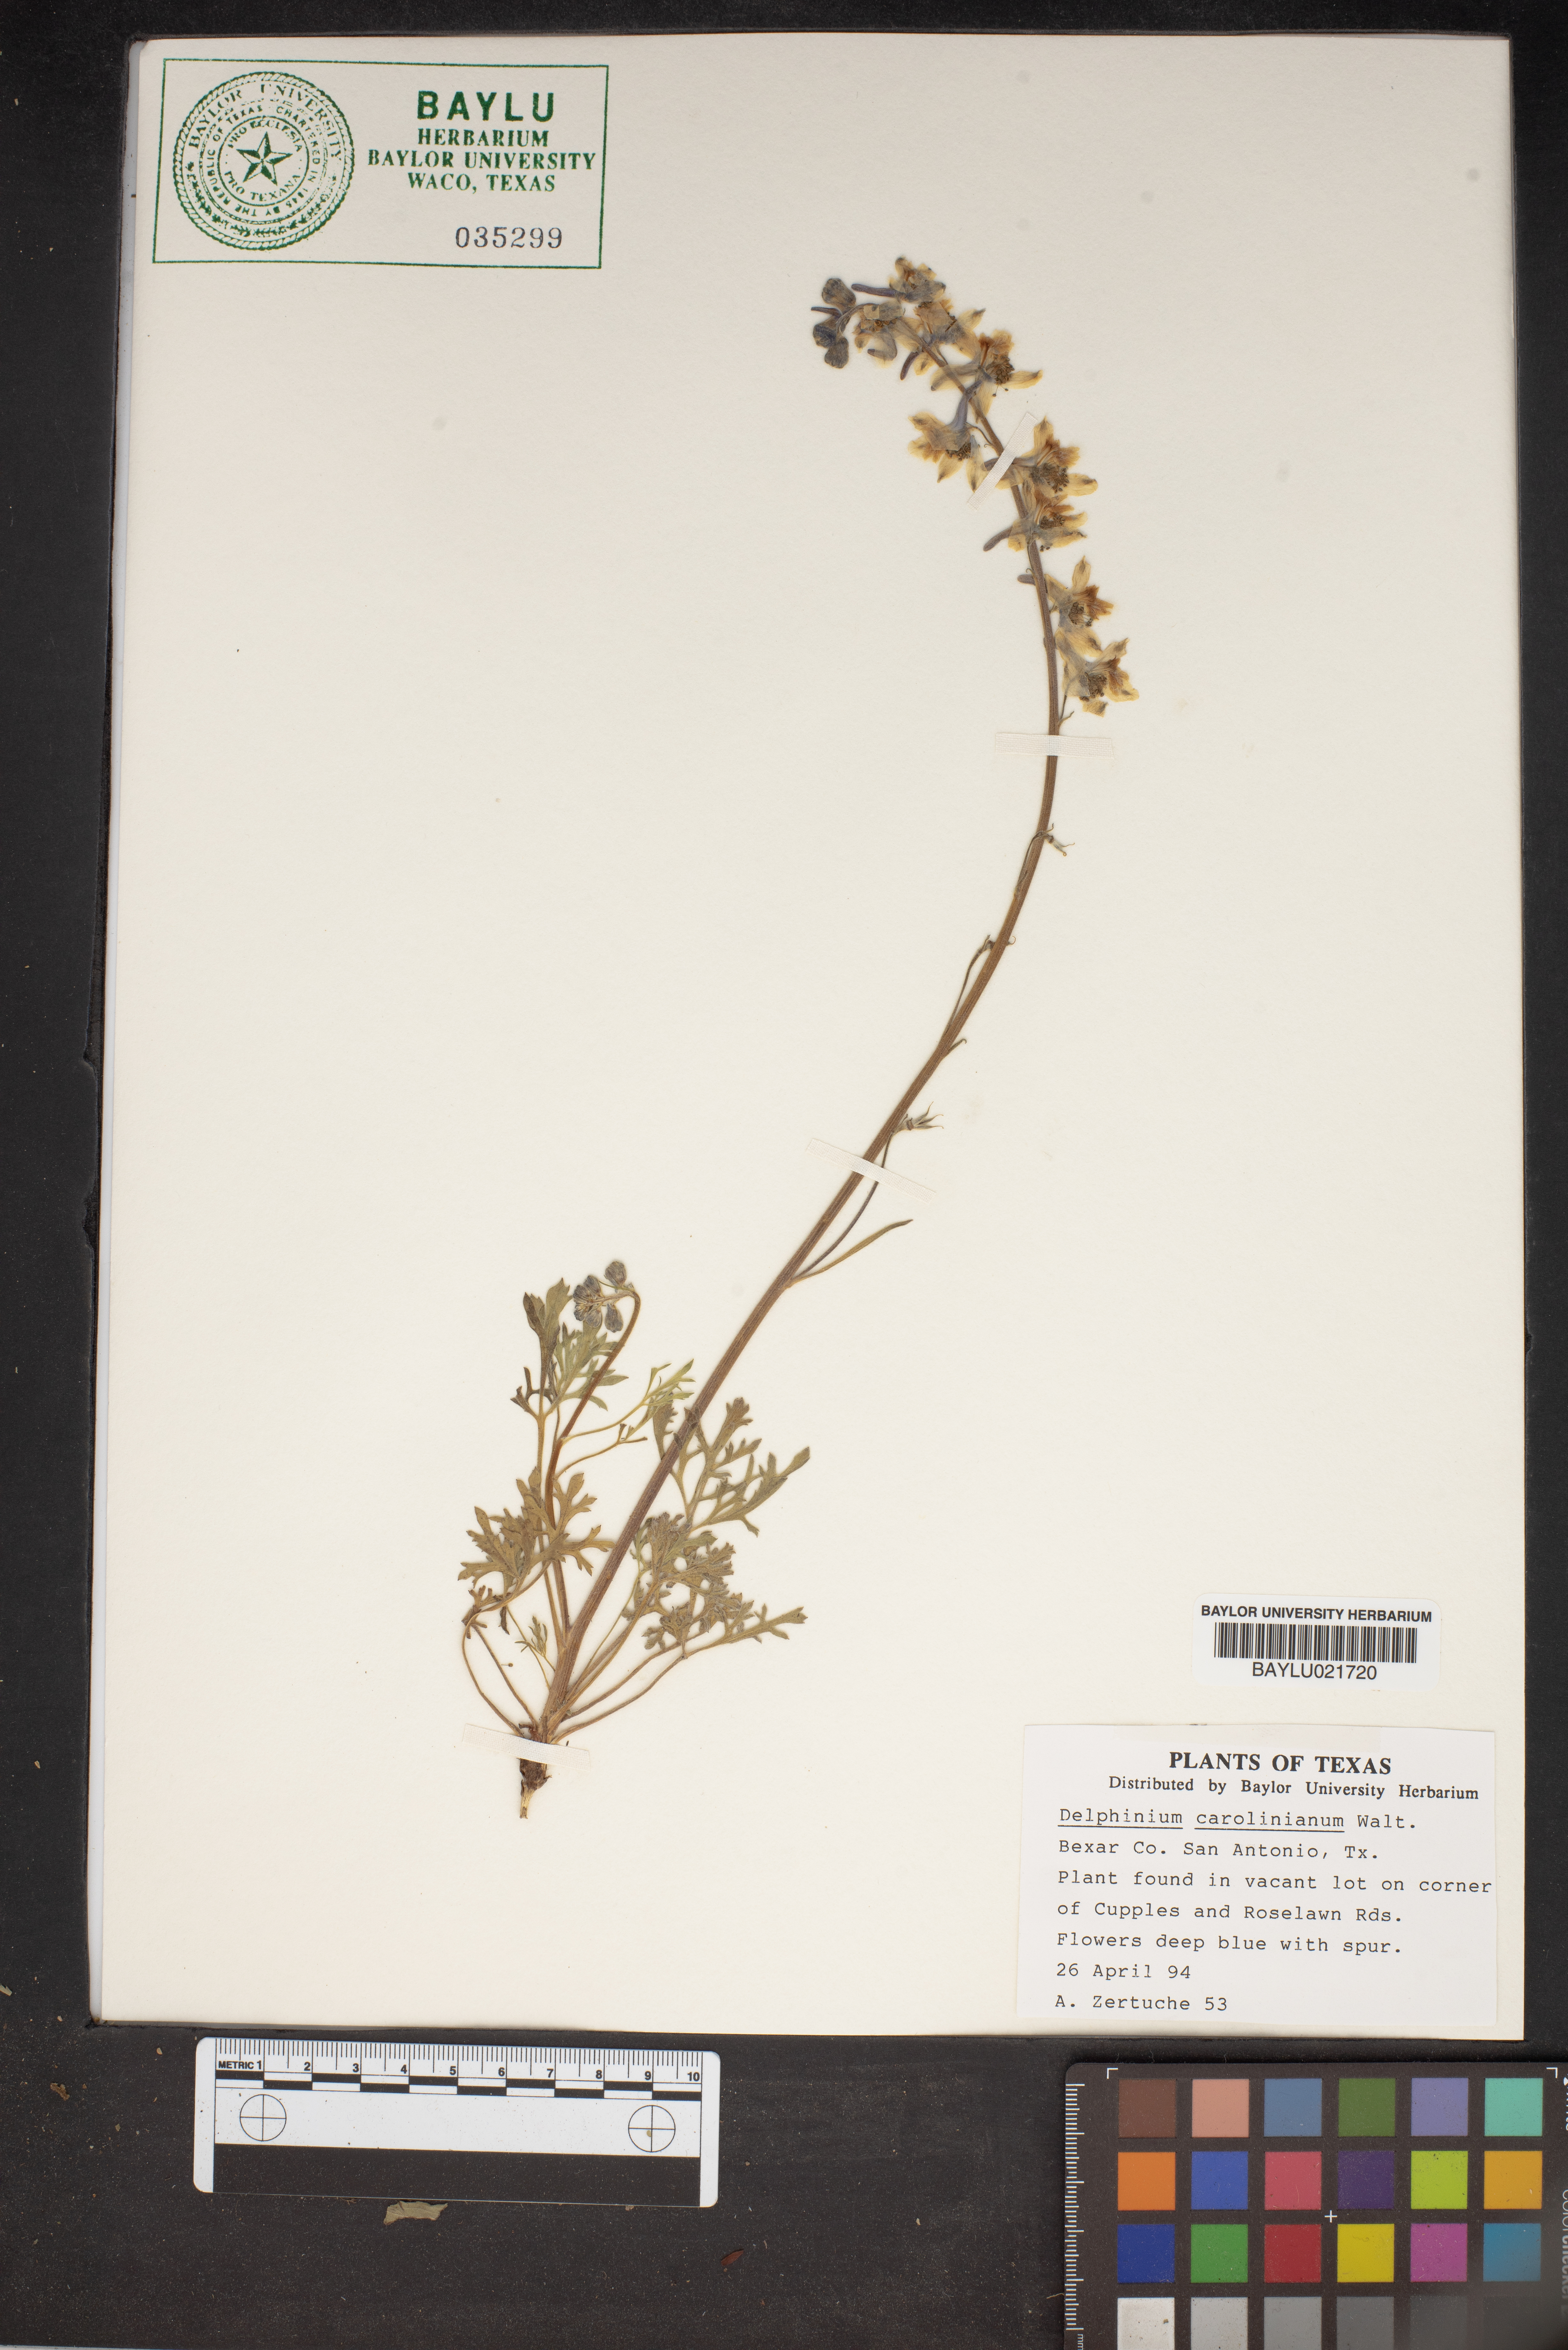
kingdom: Plantae
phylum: Tracheophyta
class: Magnoliopsida
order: Ranunculales
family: Ranunculaceae
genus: Delphinium
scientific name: Delphinium carolinianum
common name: Carolina larkspur
